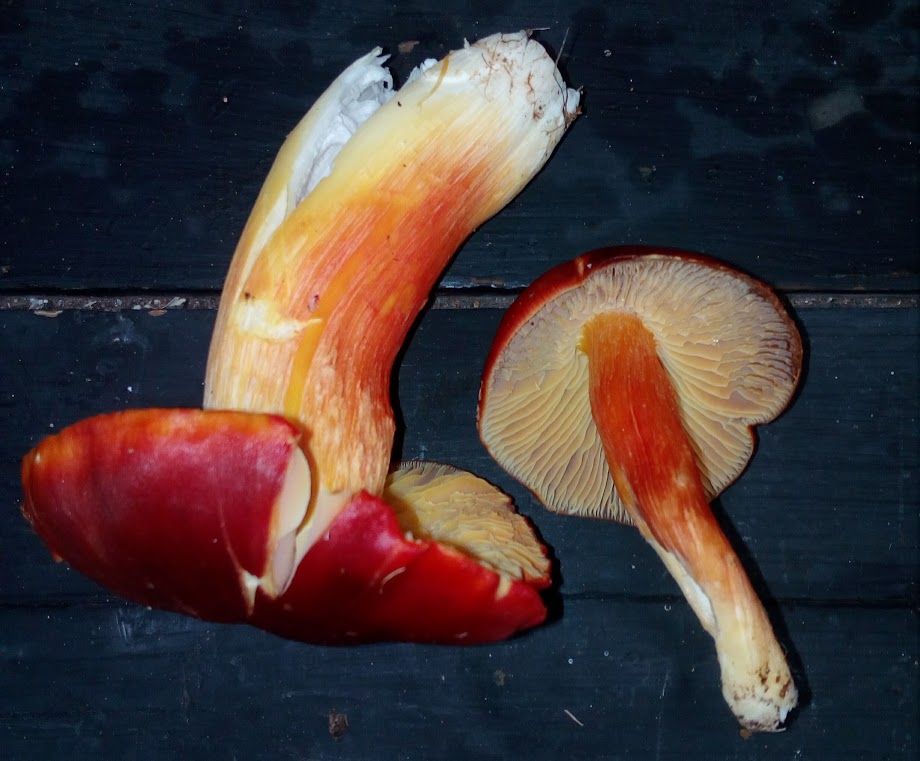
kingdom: Fungi
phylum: Basidiomycota
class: Agaricomycetes
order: Agaricales
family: Hygrophoraceae
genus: Hygrocybe
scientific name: Hygrocybe punicea
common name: skarlagen-vokshat
